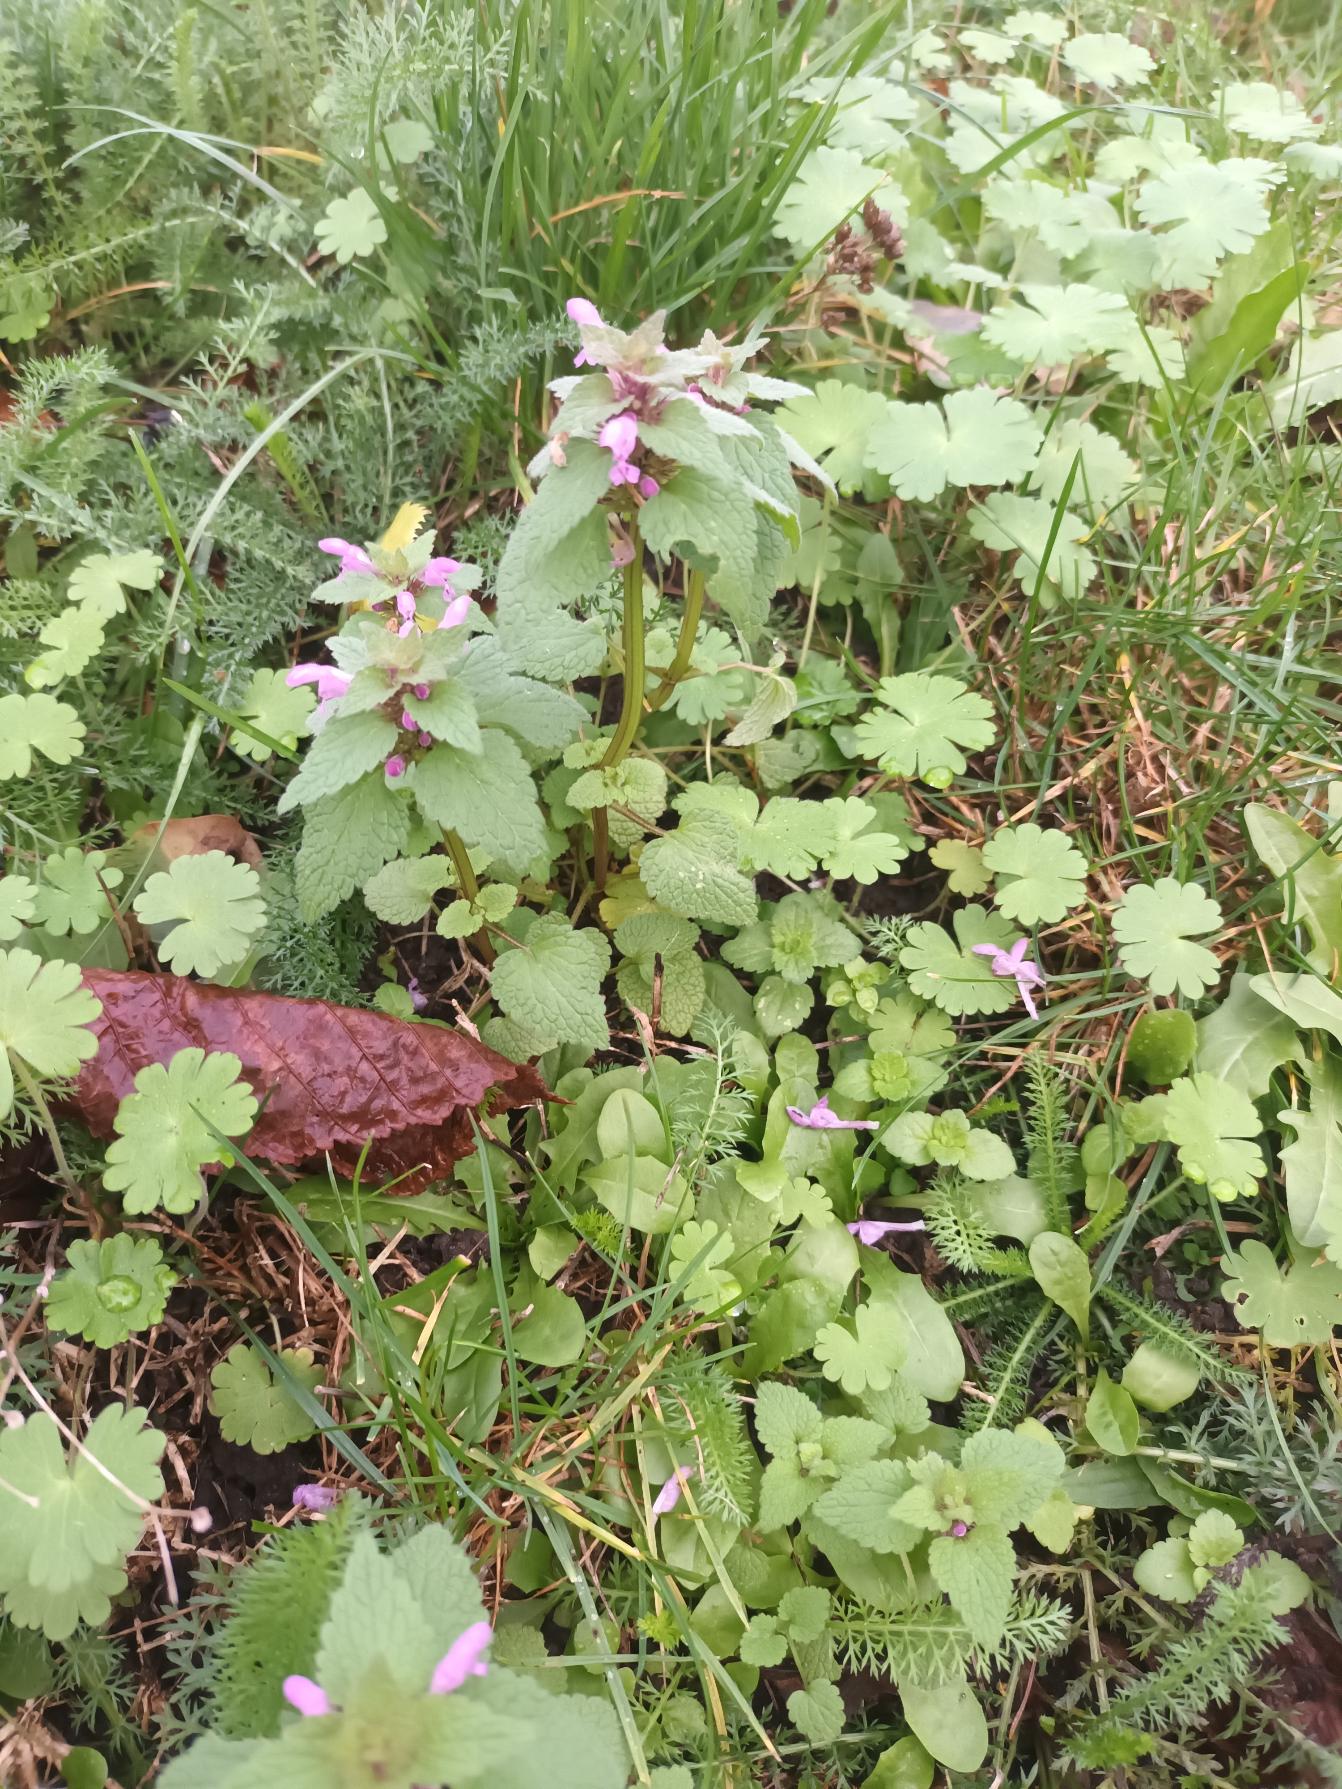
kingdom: Plantae
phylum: Tracheophyta
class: Magnoliopsida
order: Lamiales
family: Lamiaceae
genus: Lamium
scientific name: Lamium purpureum
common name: Rød tvetand
